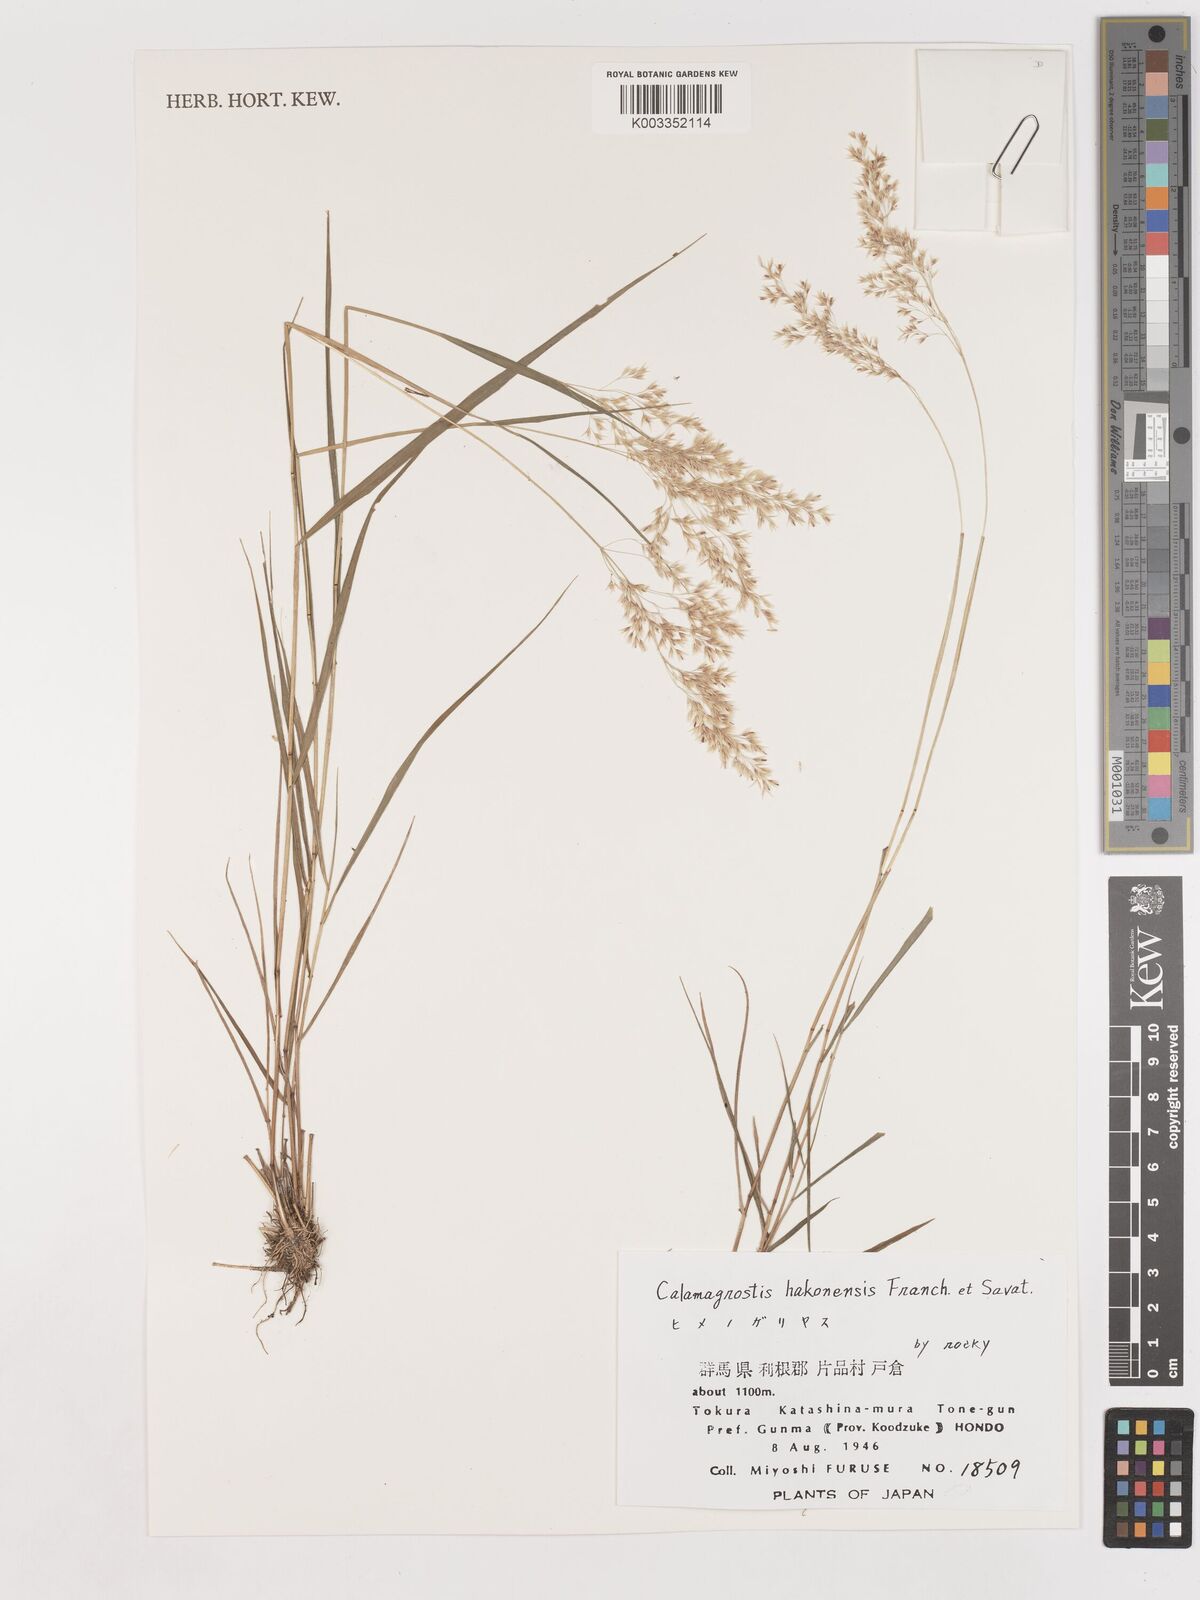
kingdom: Plantae
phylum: Tracheophyta
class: Liliopsida
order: Poales
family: Poaceae
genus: Calamagrostis
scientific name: Calamagrostis hakonensis
